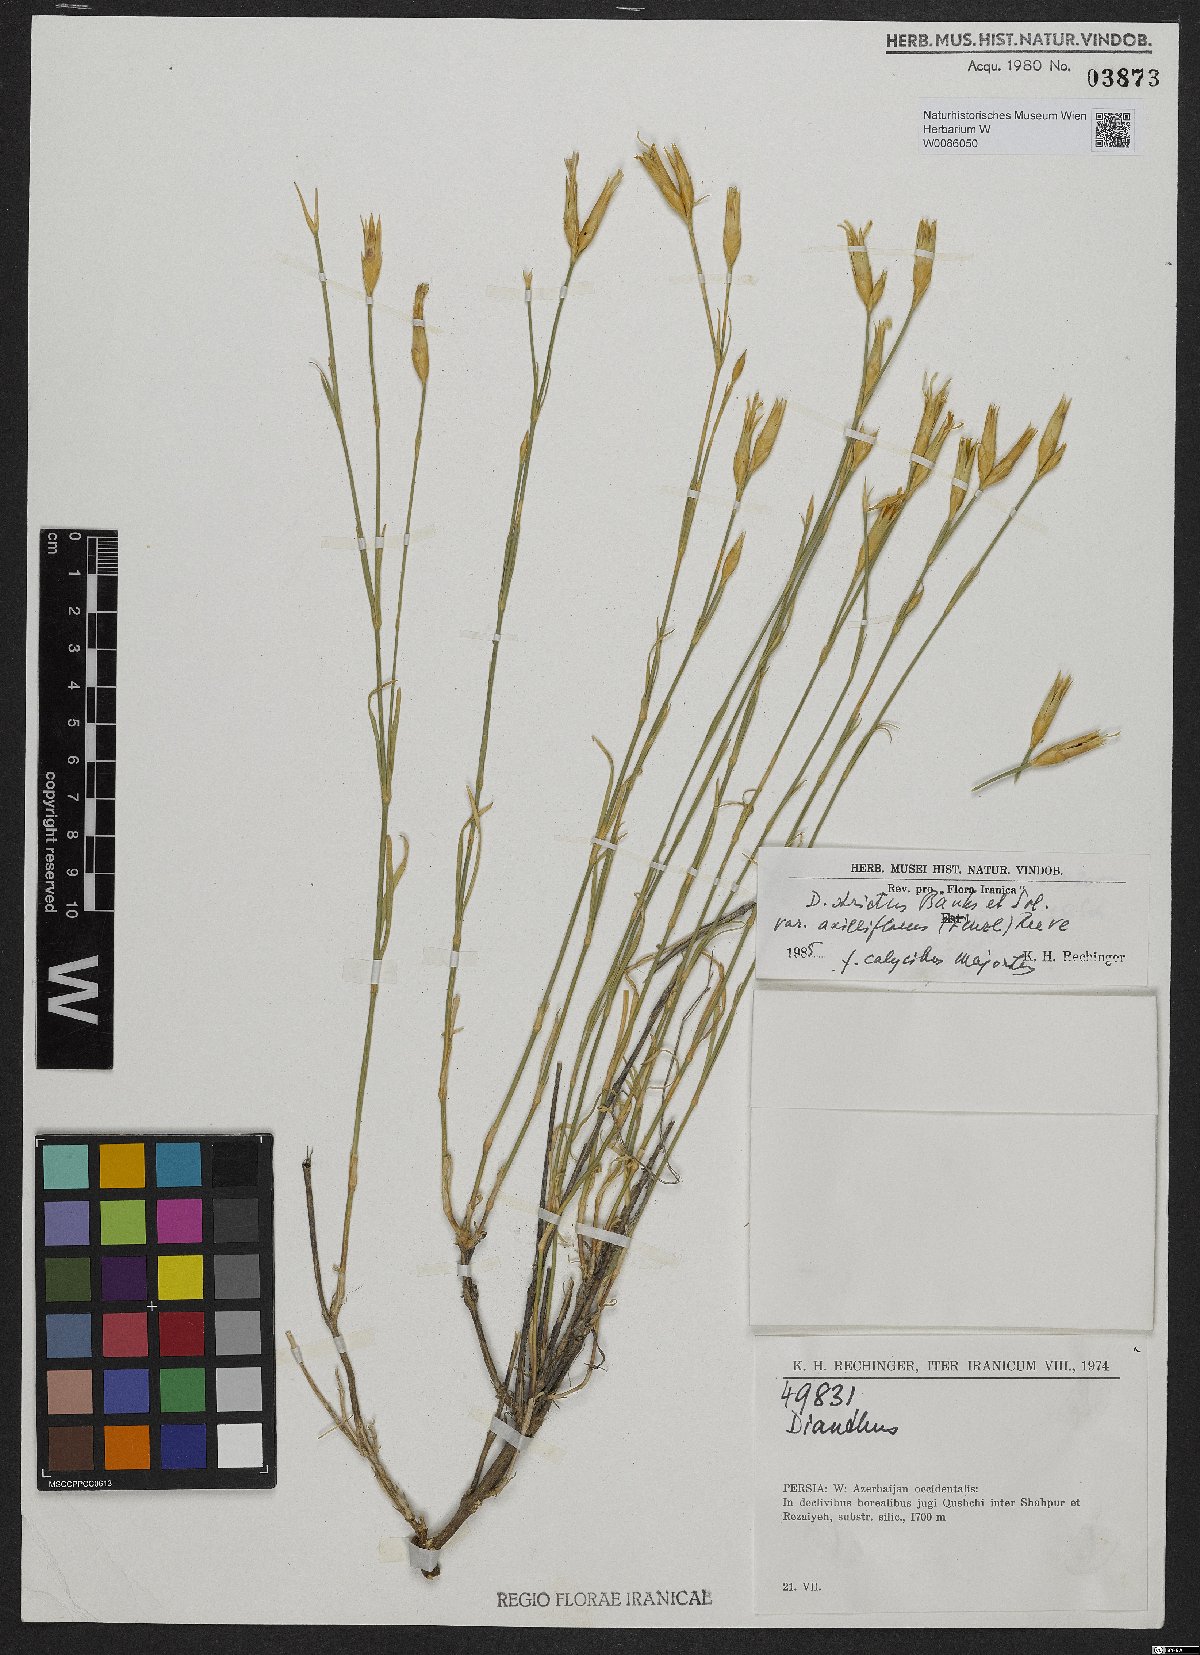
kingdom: Plantae
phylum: Tracheophyta
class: Magnoliopsida
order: Caryophyllales
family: Caryophyllaceae
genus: Dianthus
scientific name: Dianthus strictus
